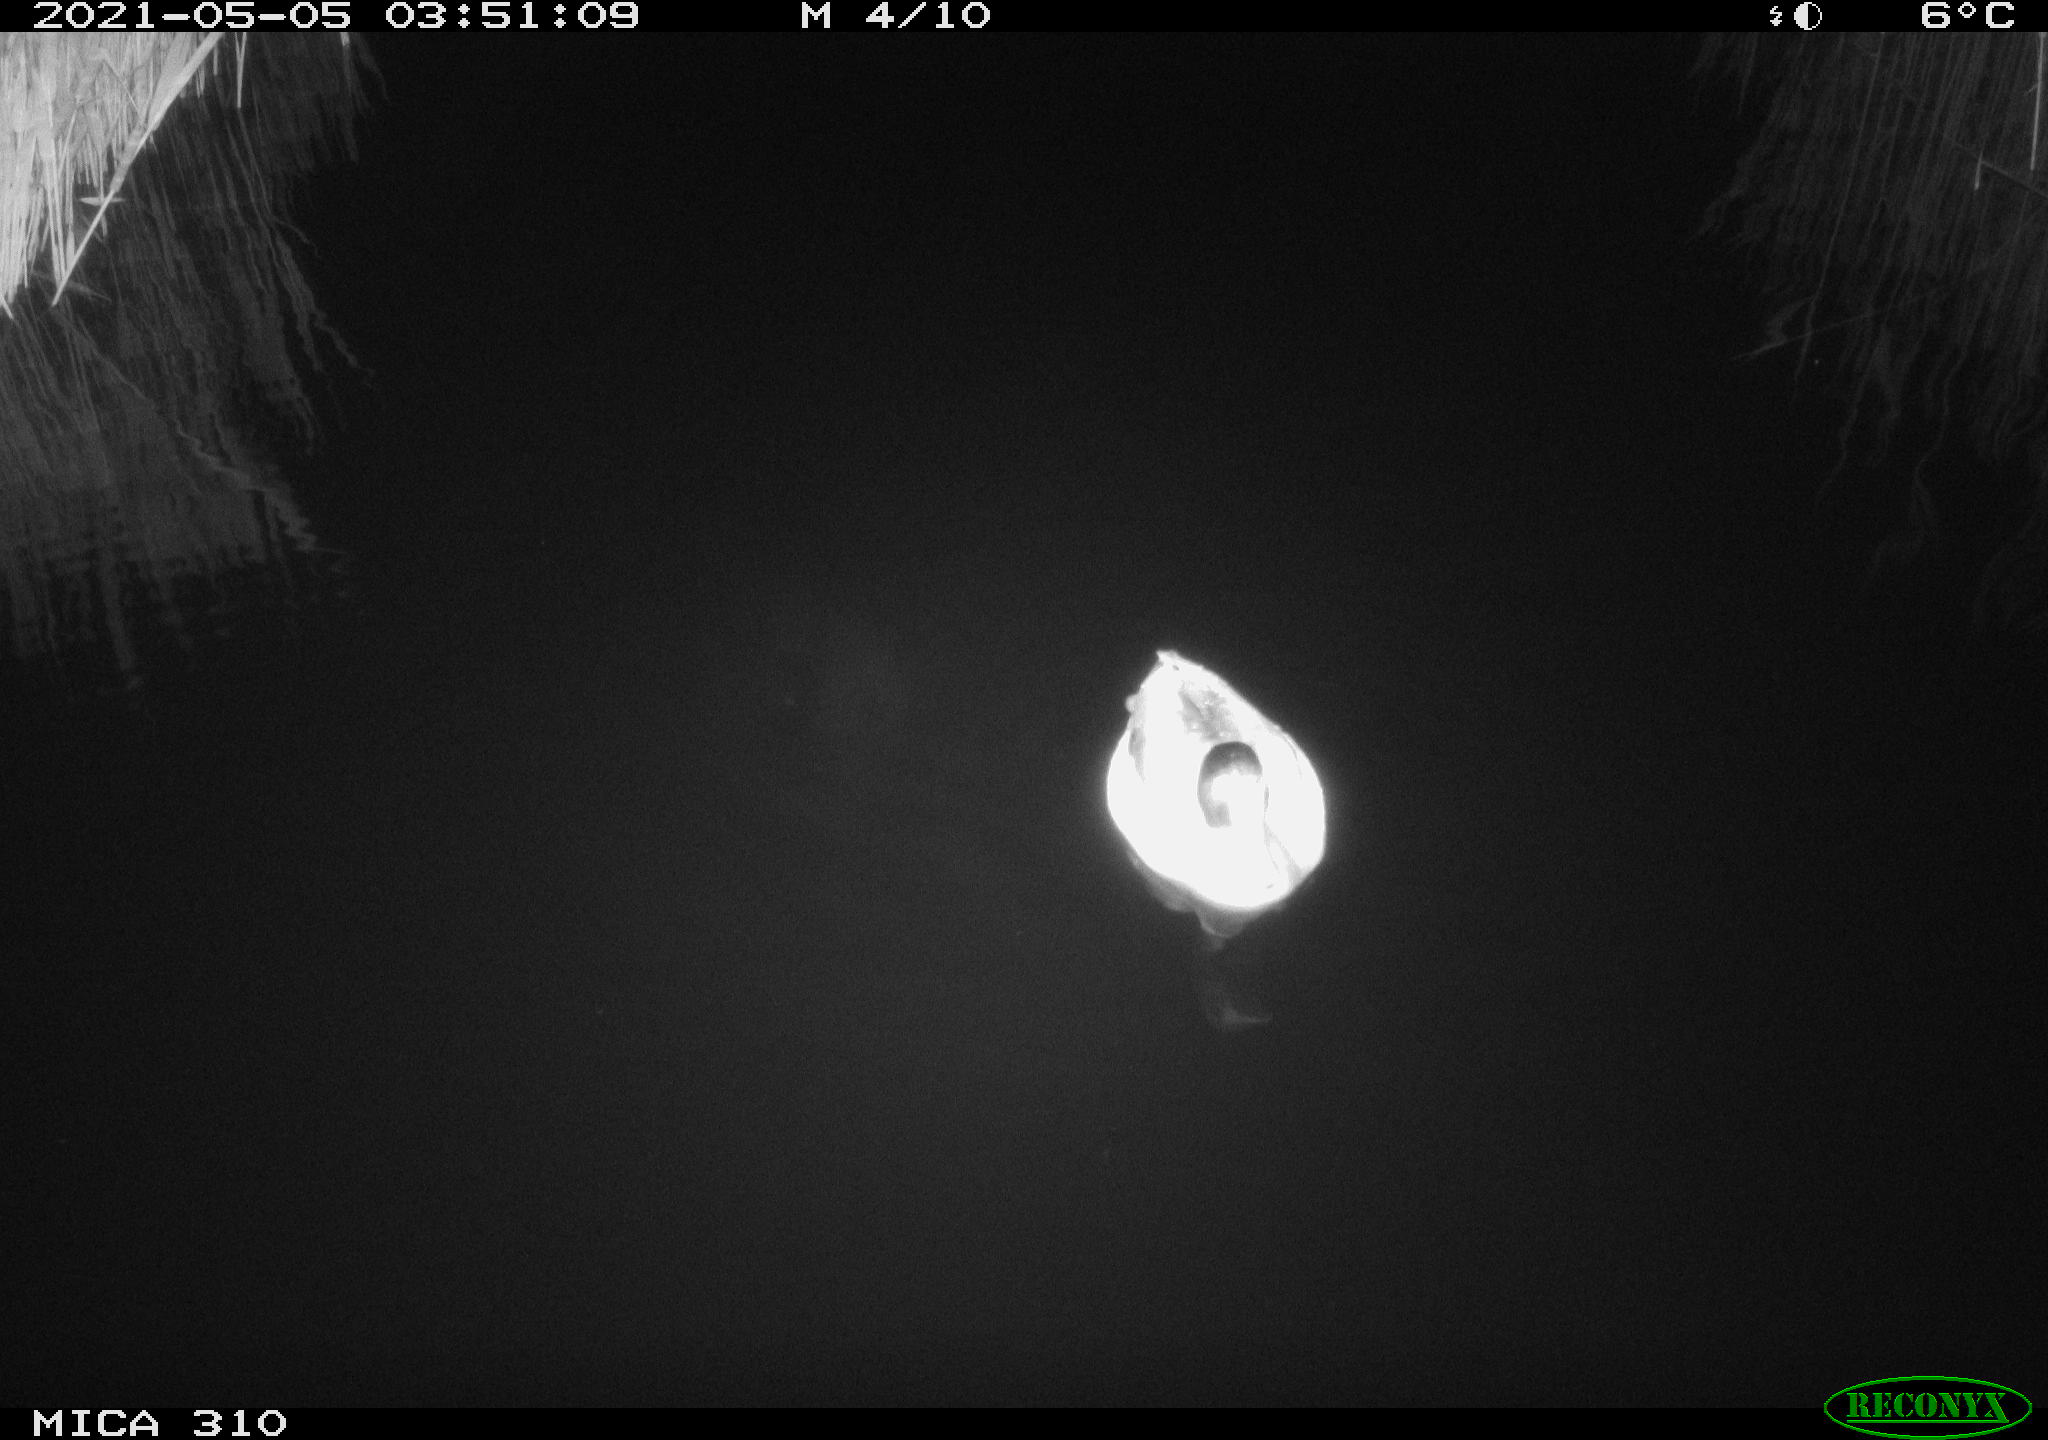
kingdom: Animalia
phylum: Chordata
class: Aves
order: Anseriformes
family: Anatidae
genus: Anas
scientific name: Anas platyrhynchos
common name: Mallard
